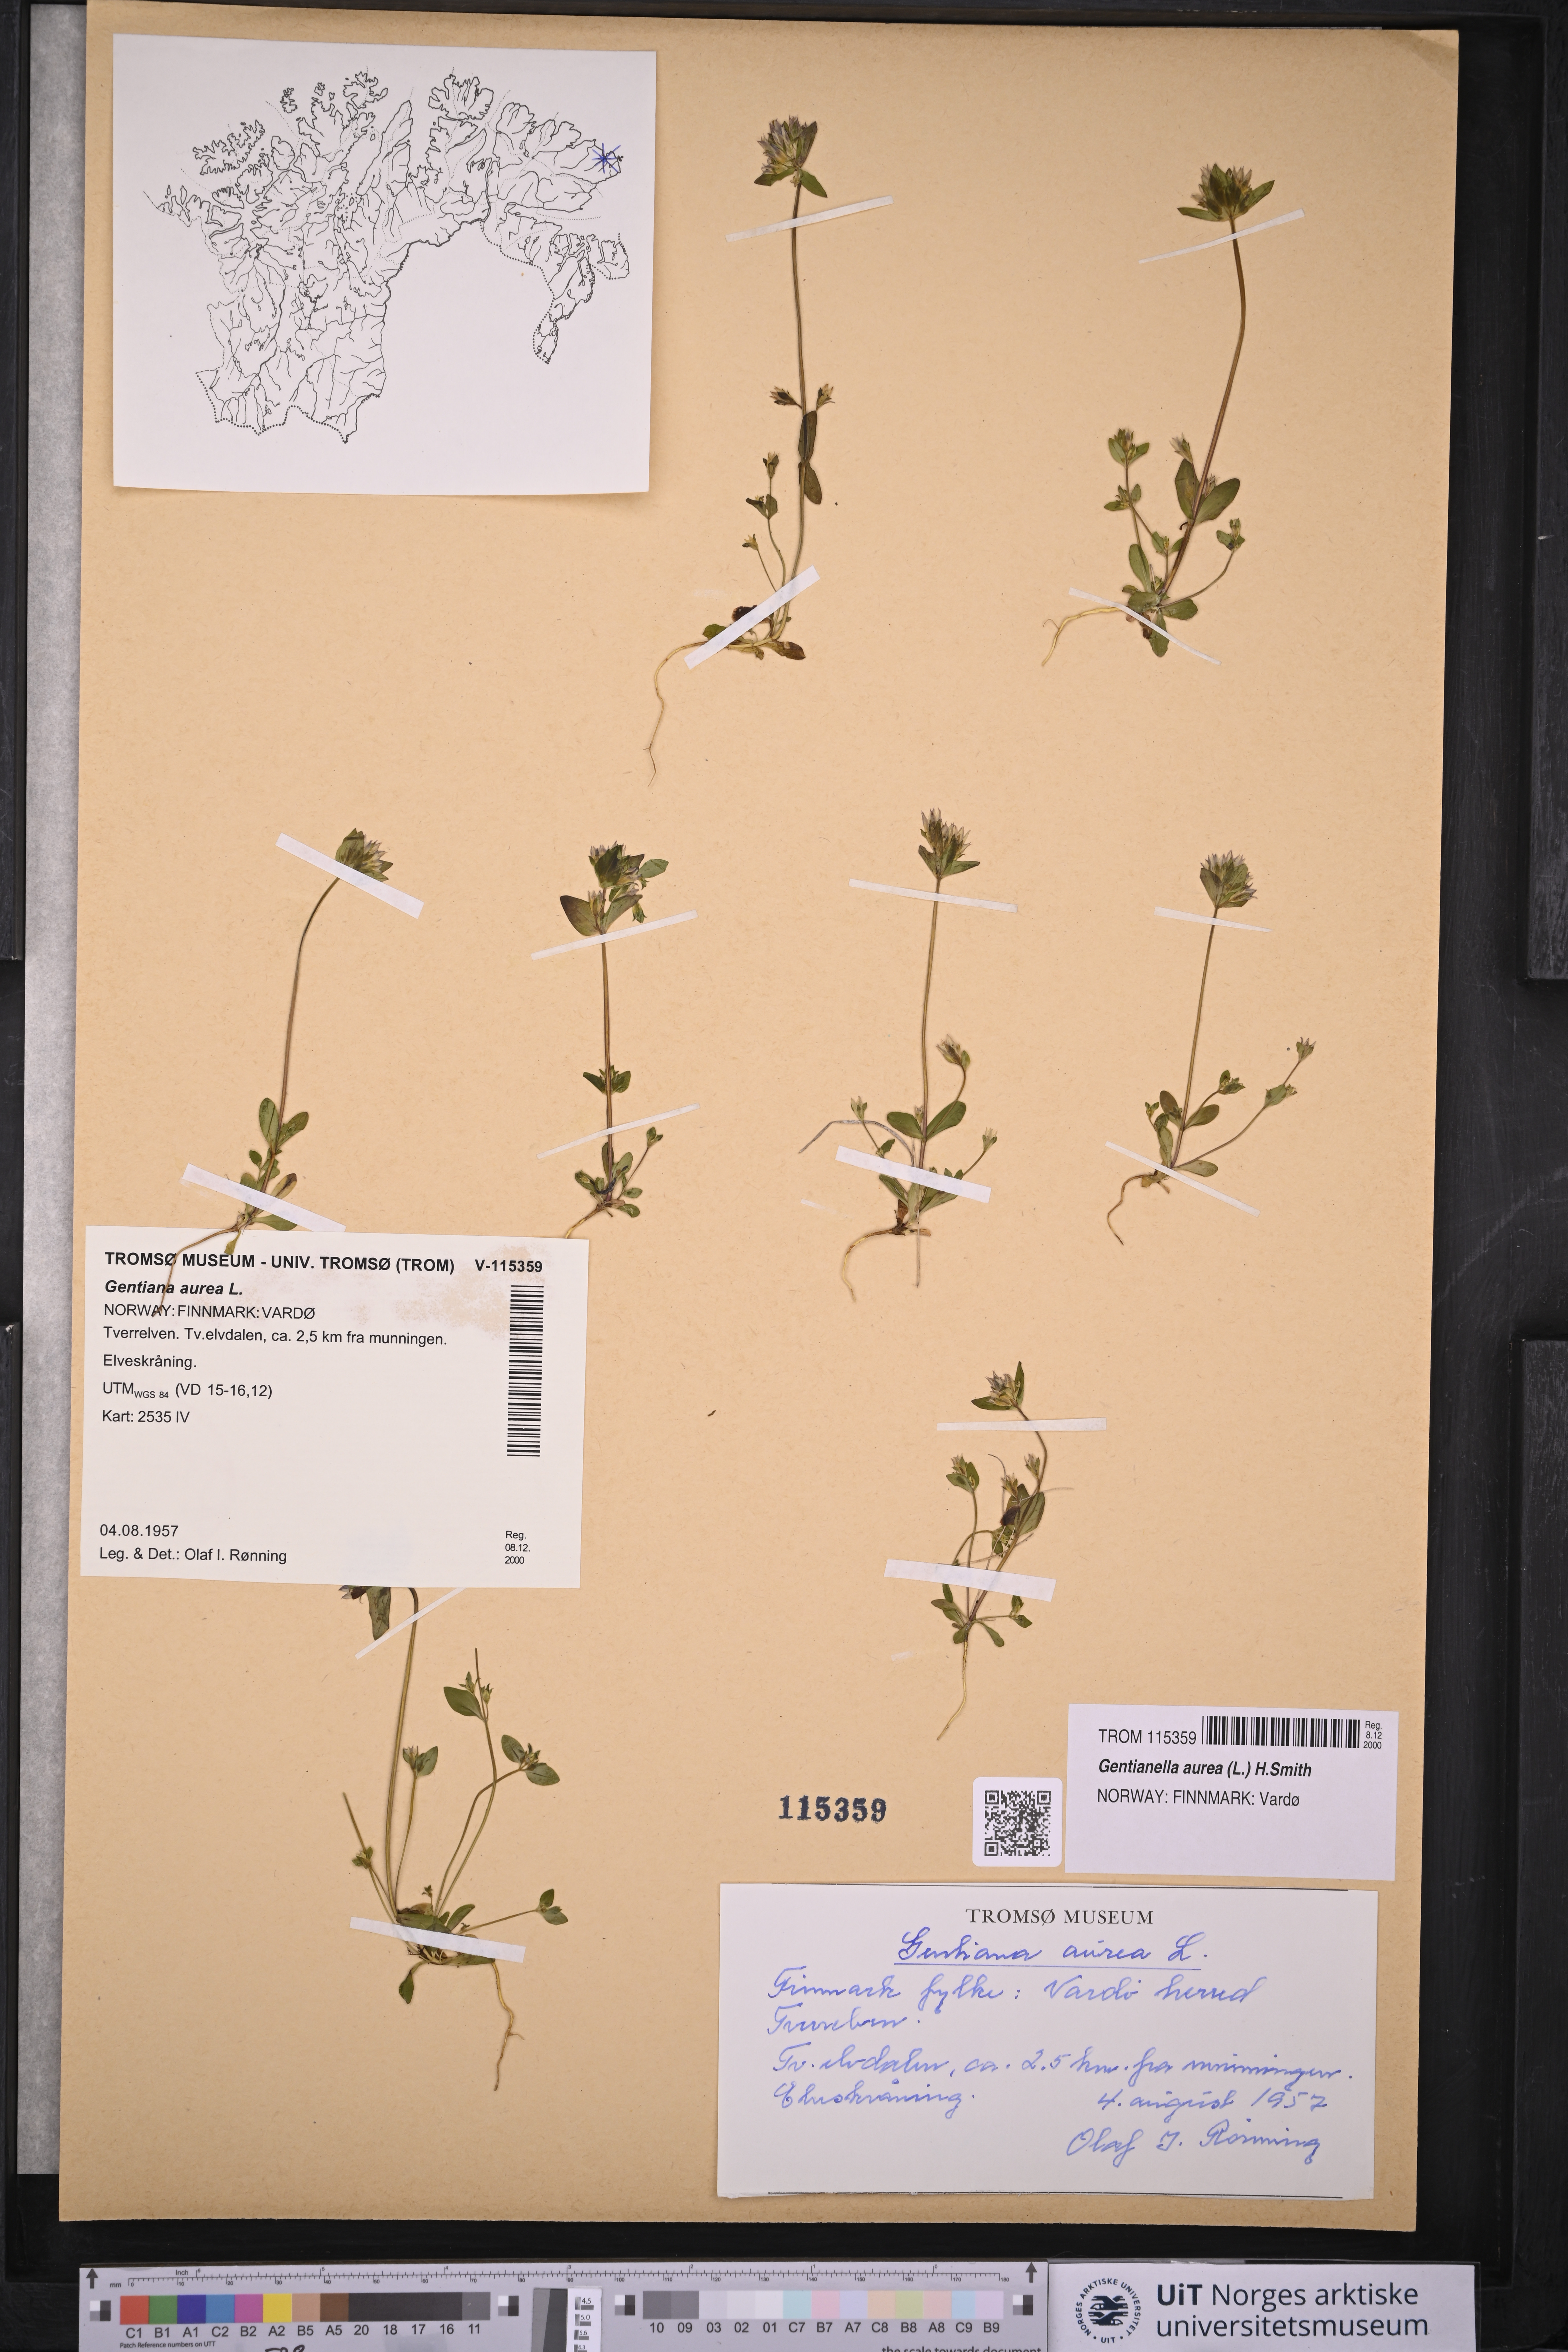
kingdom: Plantae
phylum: Tracheophyta
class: Magnoliopsida
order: Gentianales
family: Gentianaceae
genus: Gentianella
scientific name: Gentianella aurea
